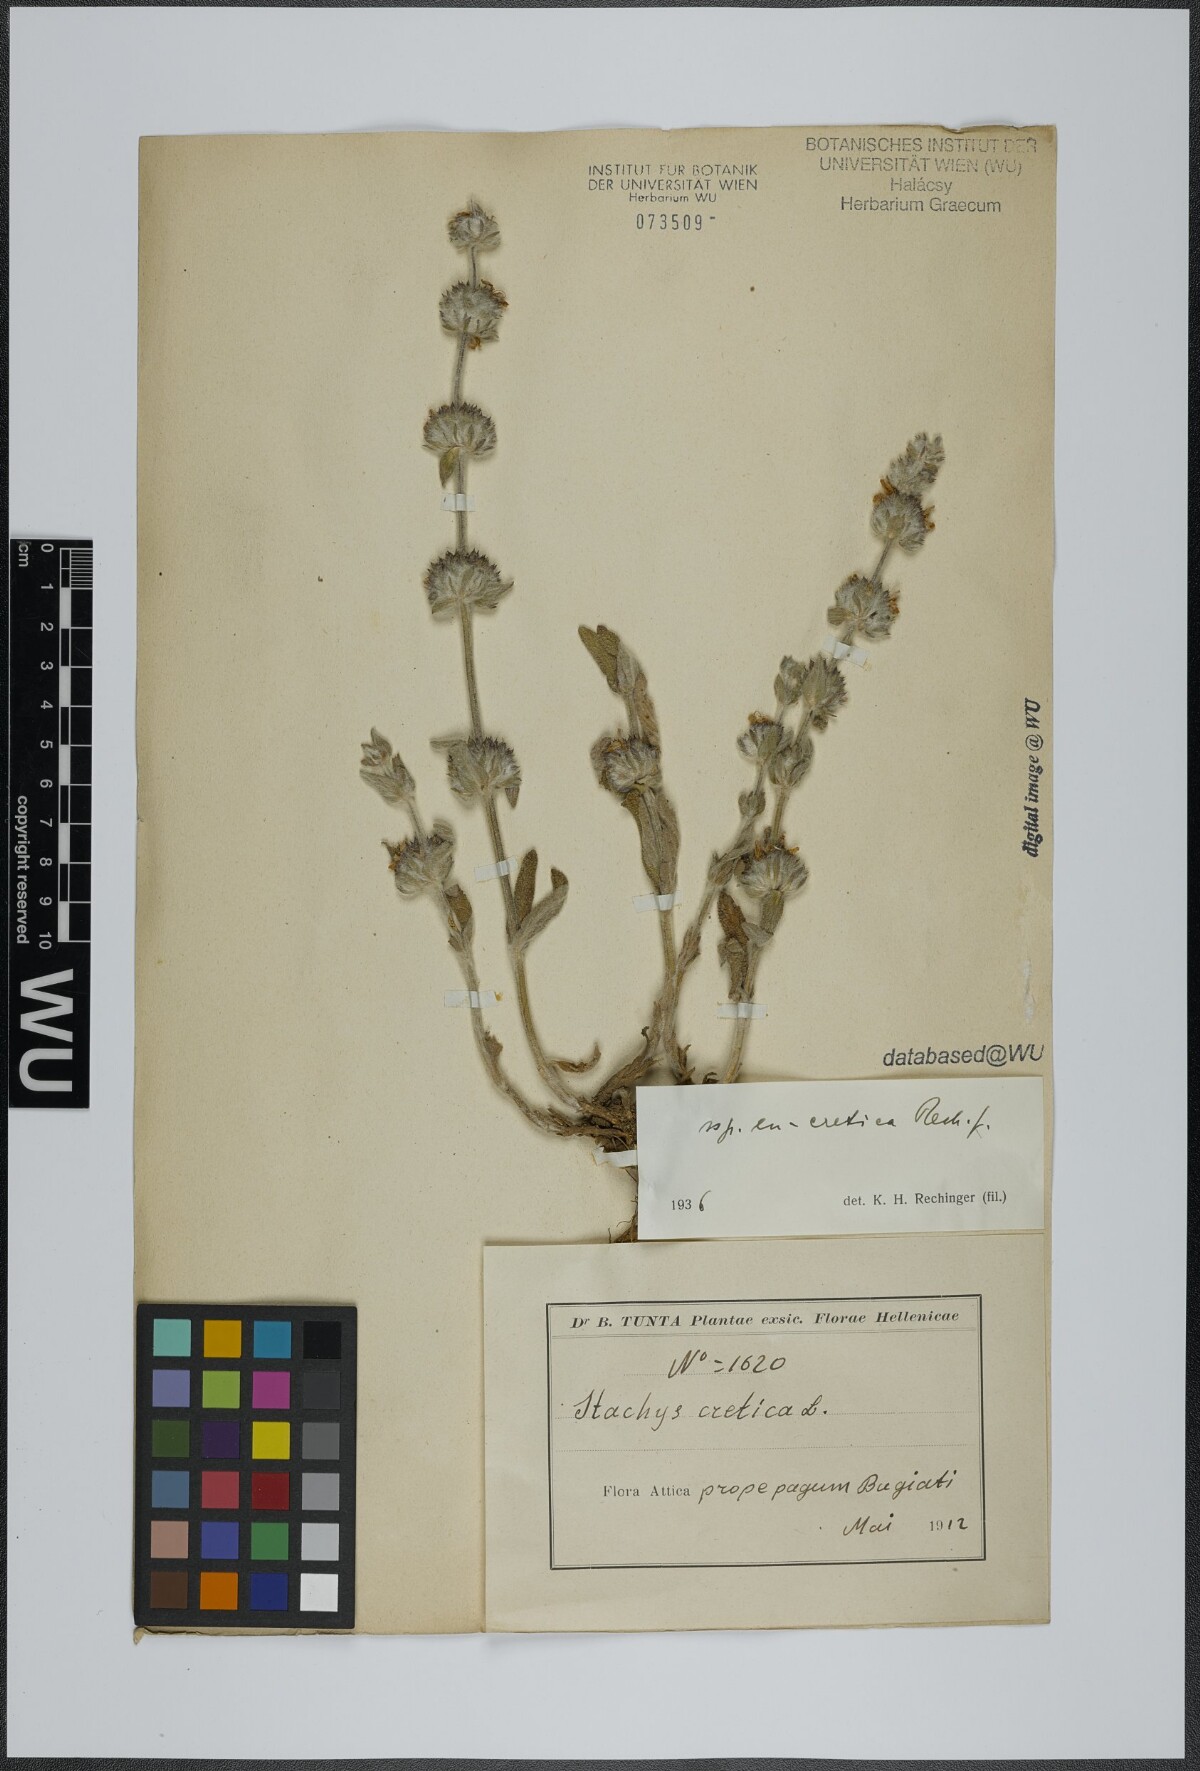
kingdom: Plantae
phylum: Tracheophyta
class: Magnoliopsida
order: Lamiales
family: Lamiaceae
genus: Stachys
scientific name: Stachys cretica
